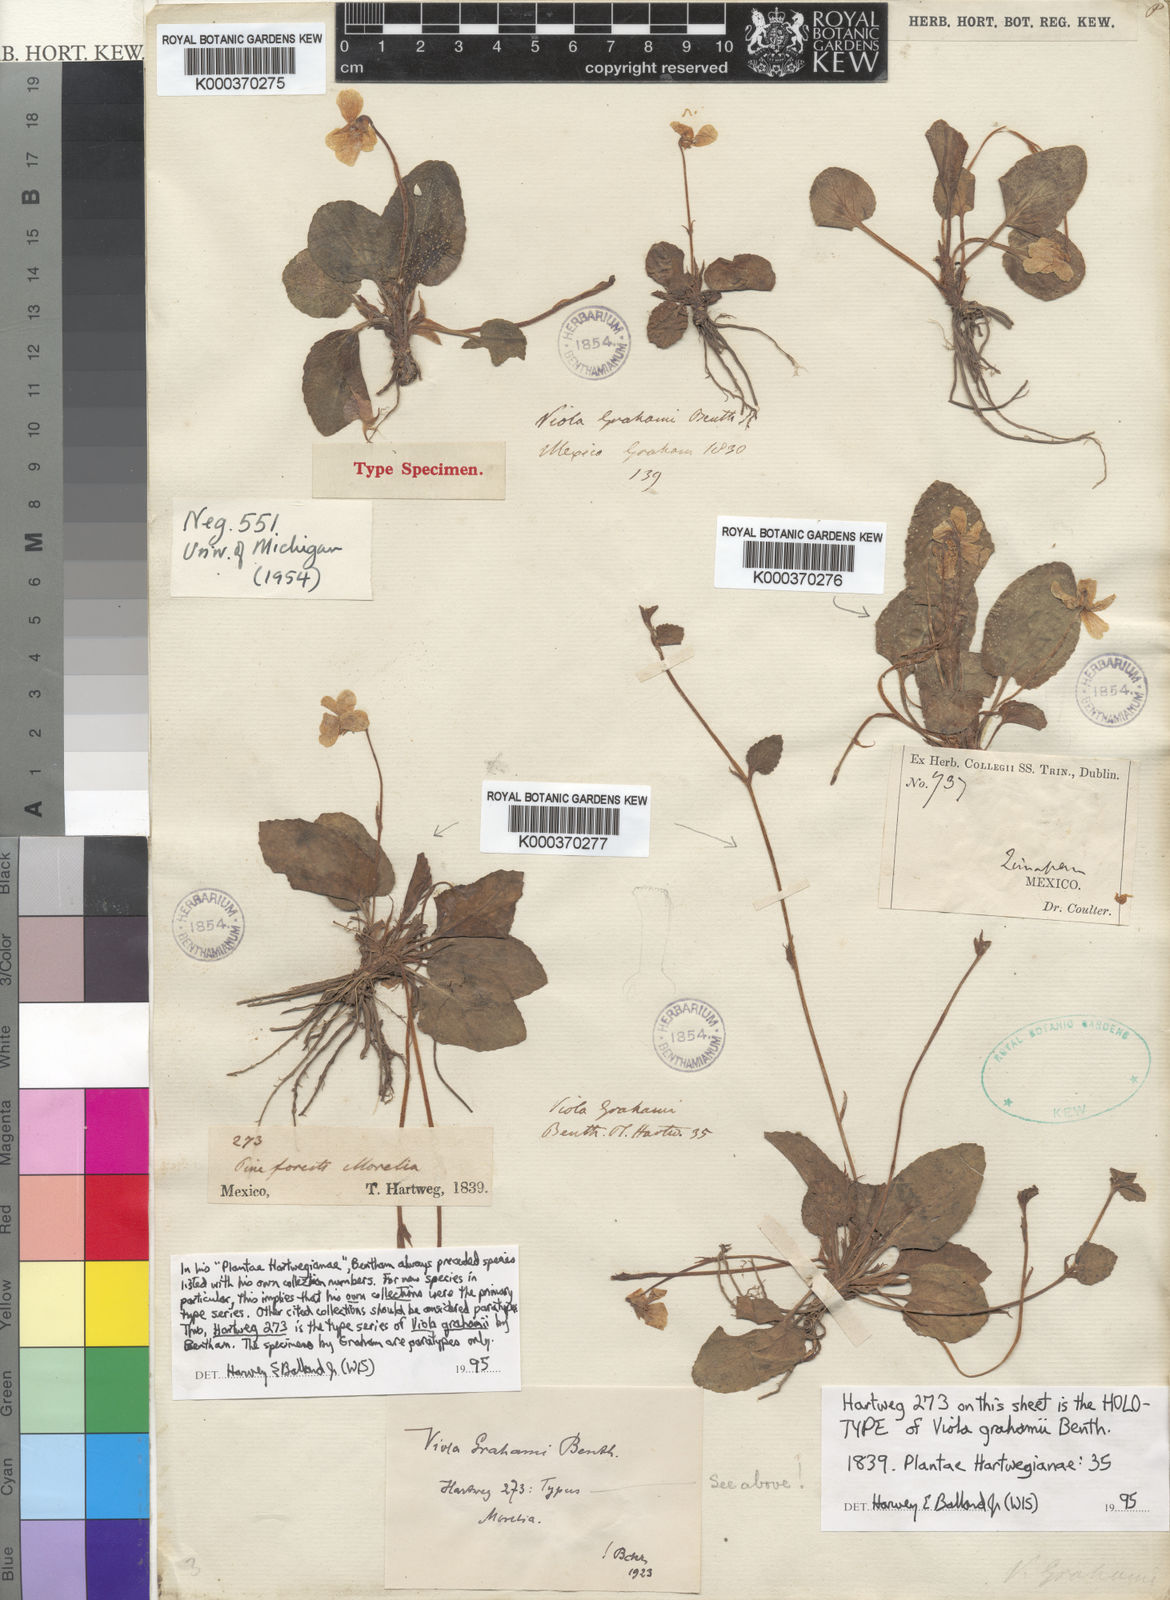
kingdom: Plantae
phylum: Tracheophyta
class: Magnoliopsida
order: Malpighiales
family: Violaceae
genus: Viola
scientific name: Viola grahamii
